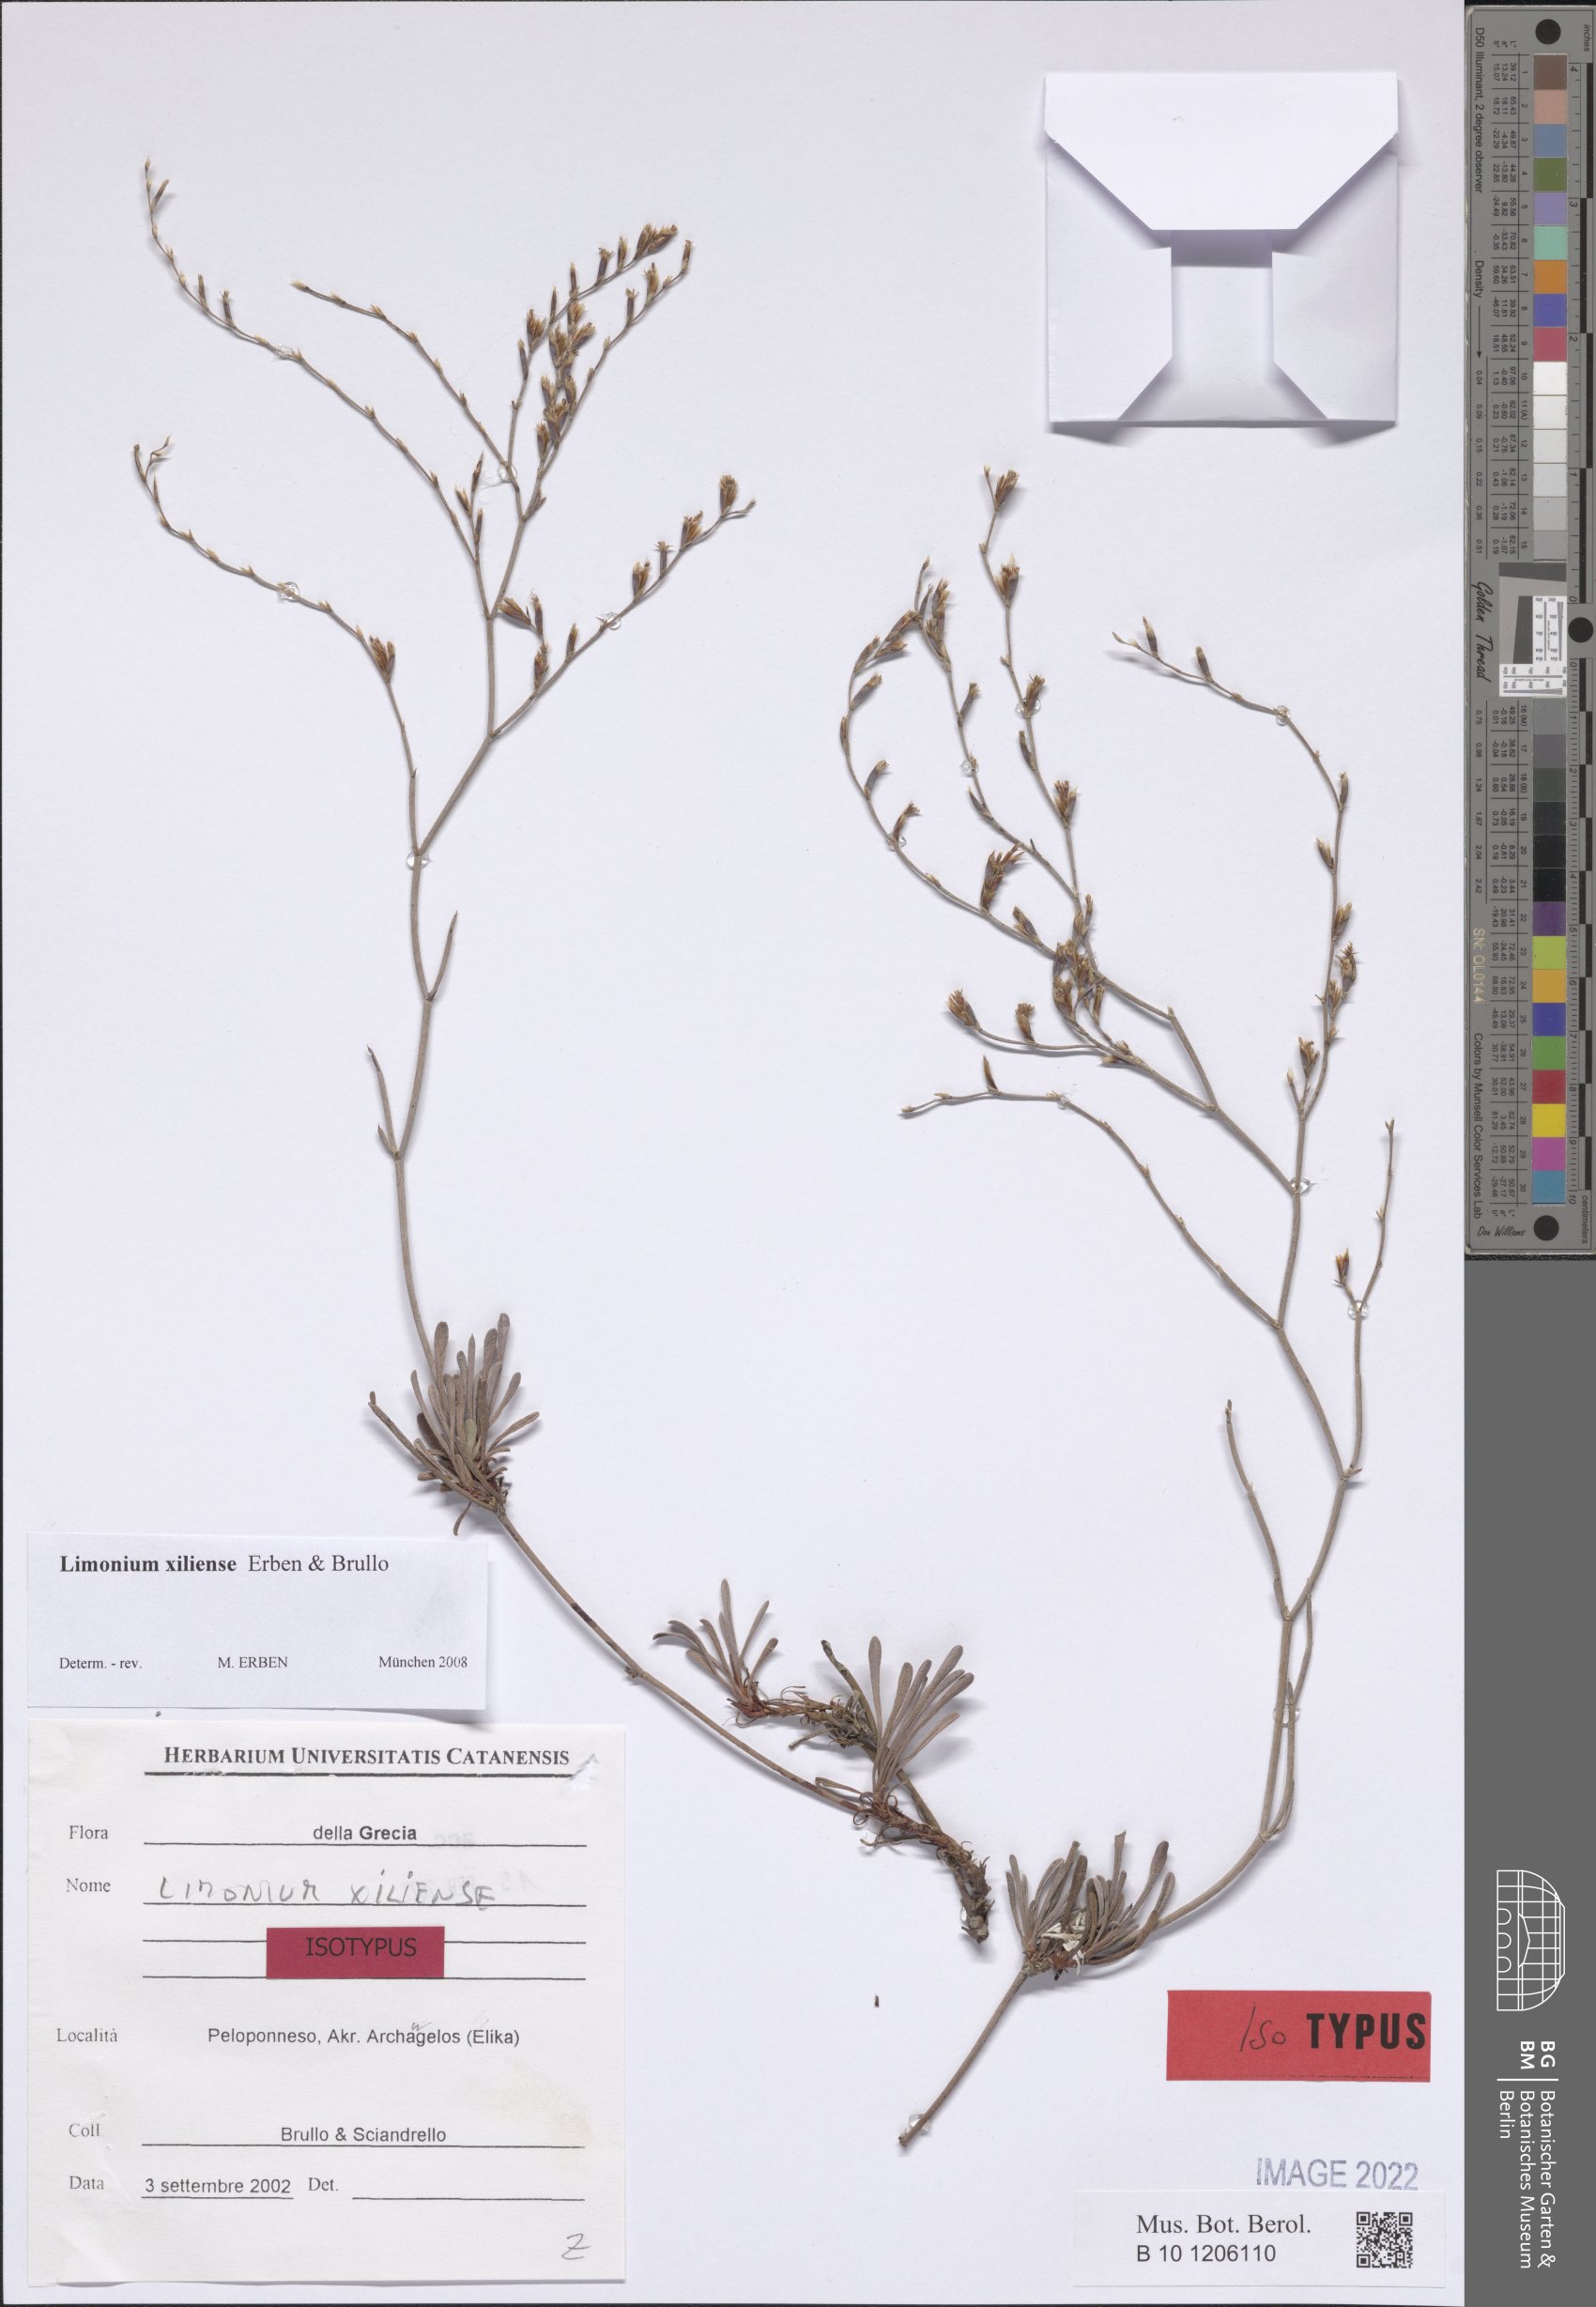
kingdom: Plantae
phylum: Tracheophyta
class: Magnoliopsida
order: Caryophyllales
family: Plumbaginaceae
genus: Limonium
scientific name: Limonium xiliense
